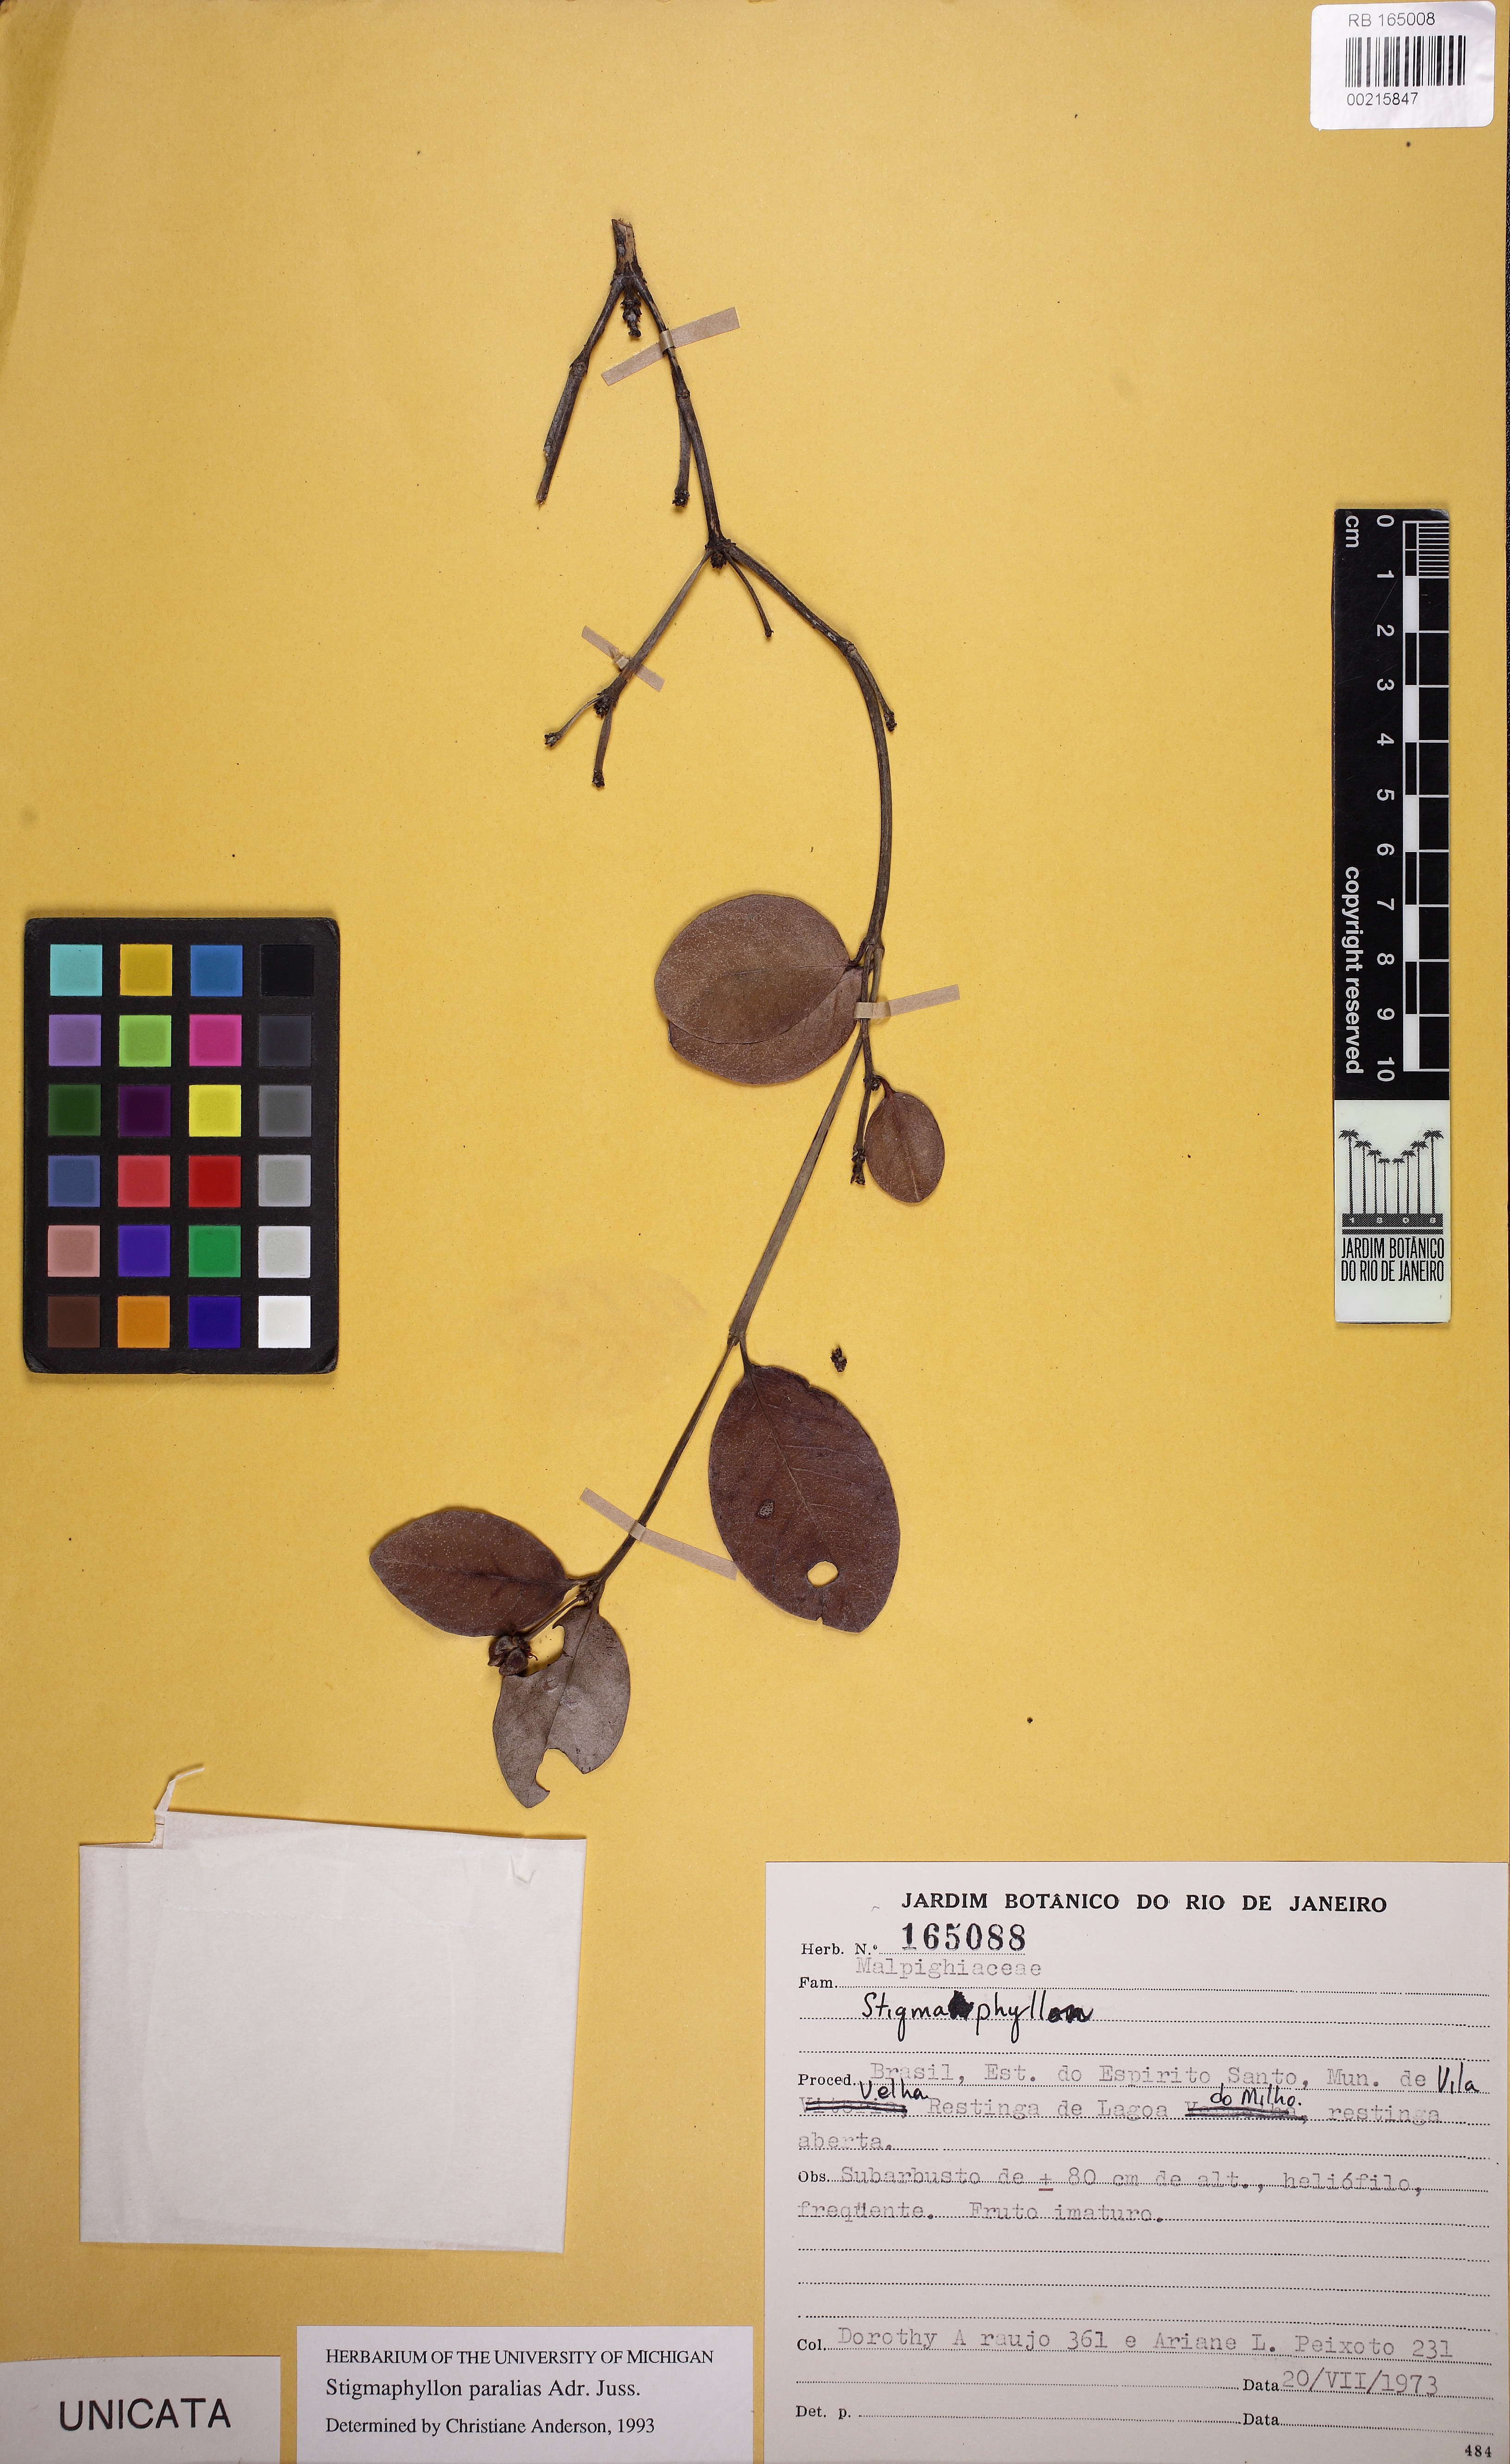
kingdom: Plantae
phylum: Tracheophyta
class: Magnoliopsida
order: Malpighiales
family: Malpighiaceae
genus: Stigmaphyllon
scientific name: Stigmaphyllon paralias
